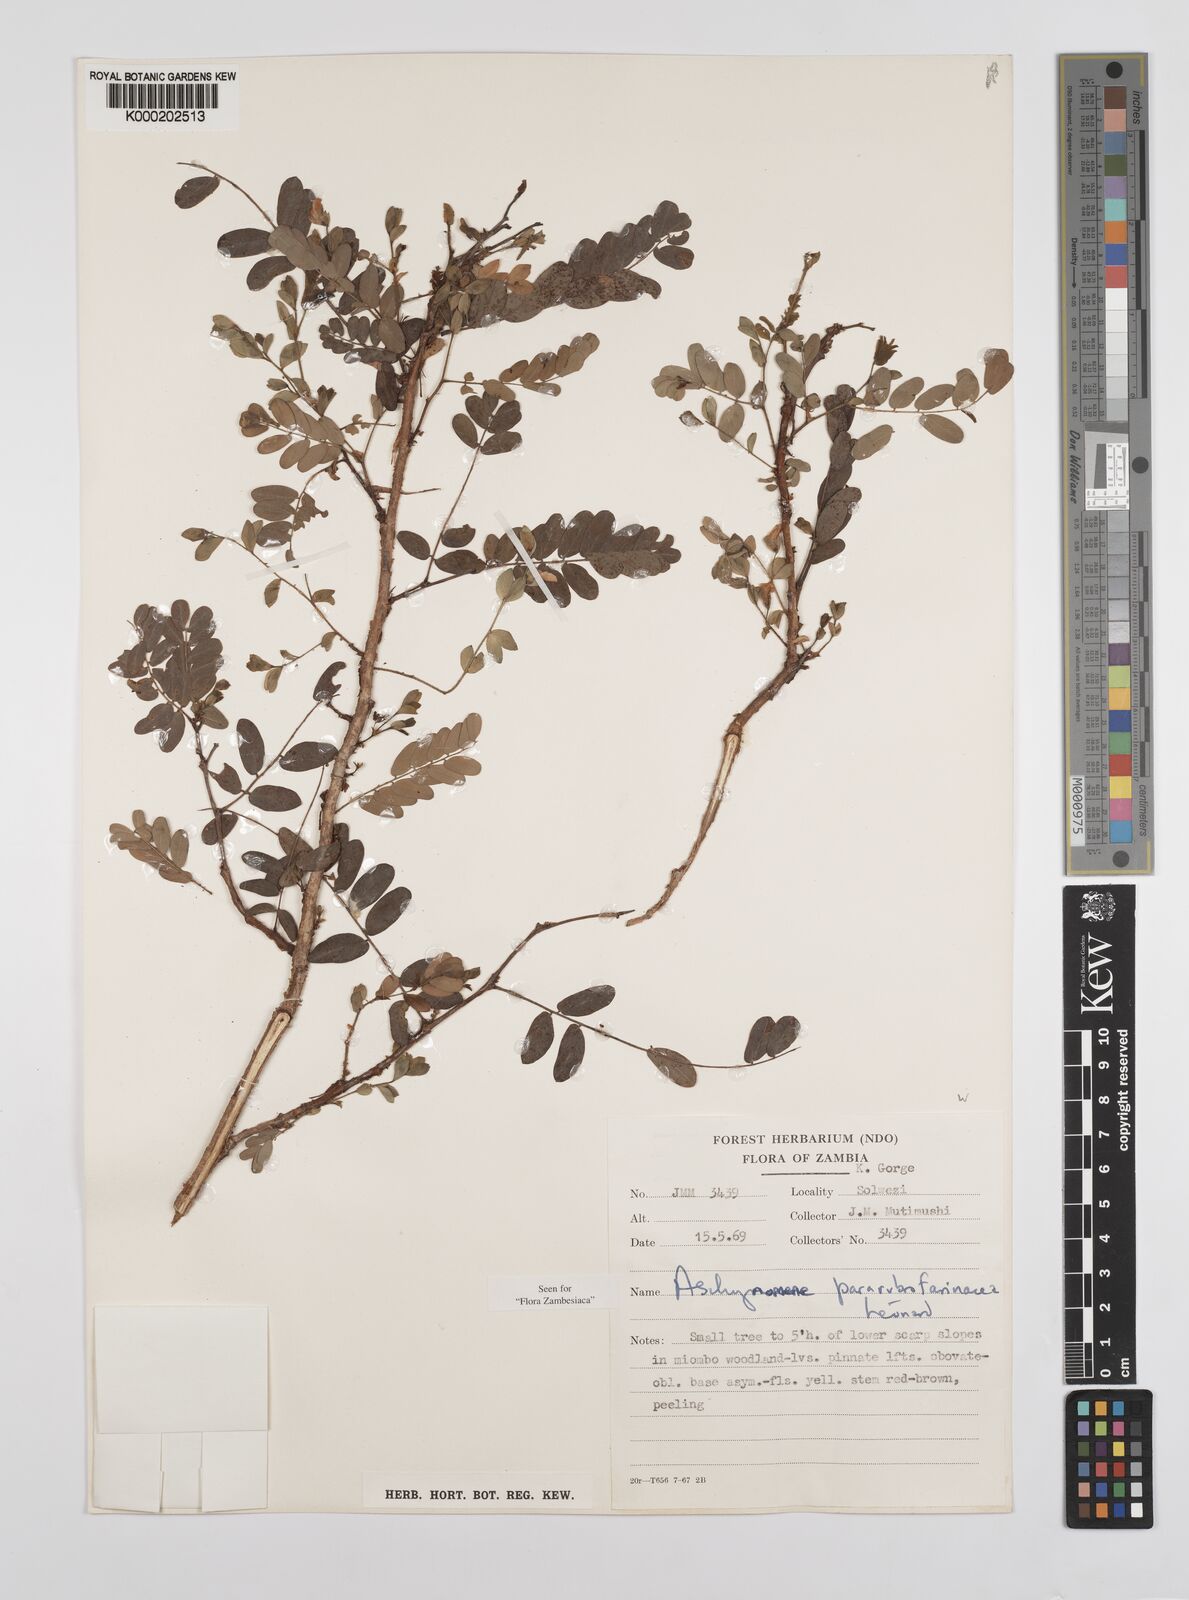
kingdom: Plantae
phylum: Tracheophyta
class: Magnoliopsida
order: Fabales
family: Fabaceae
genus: Aeschynomene
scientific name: Aeschynomene pararubrofarinacea
